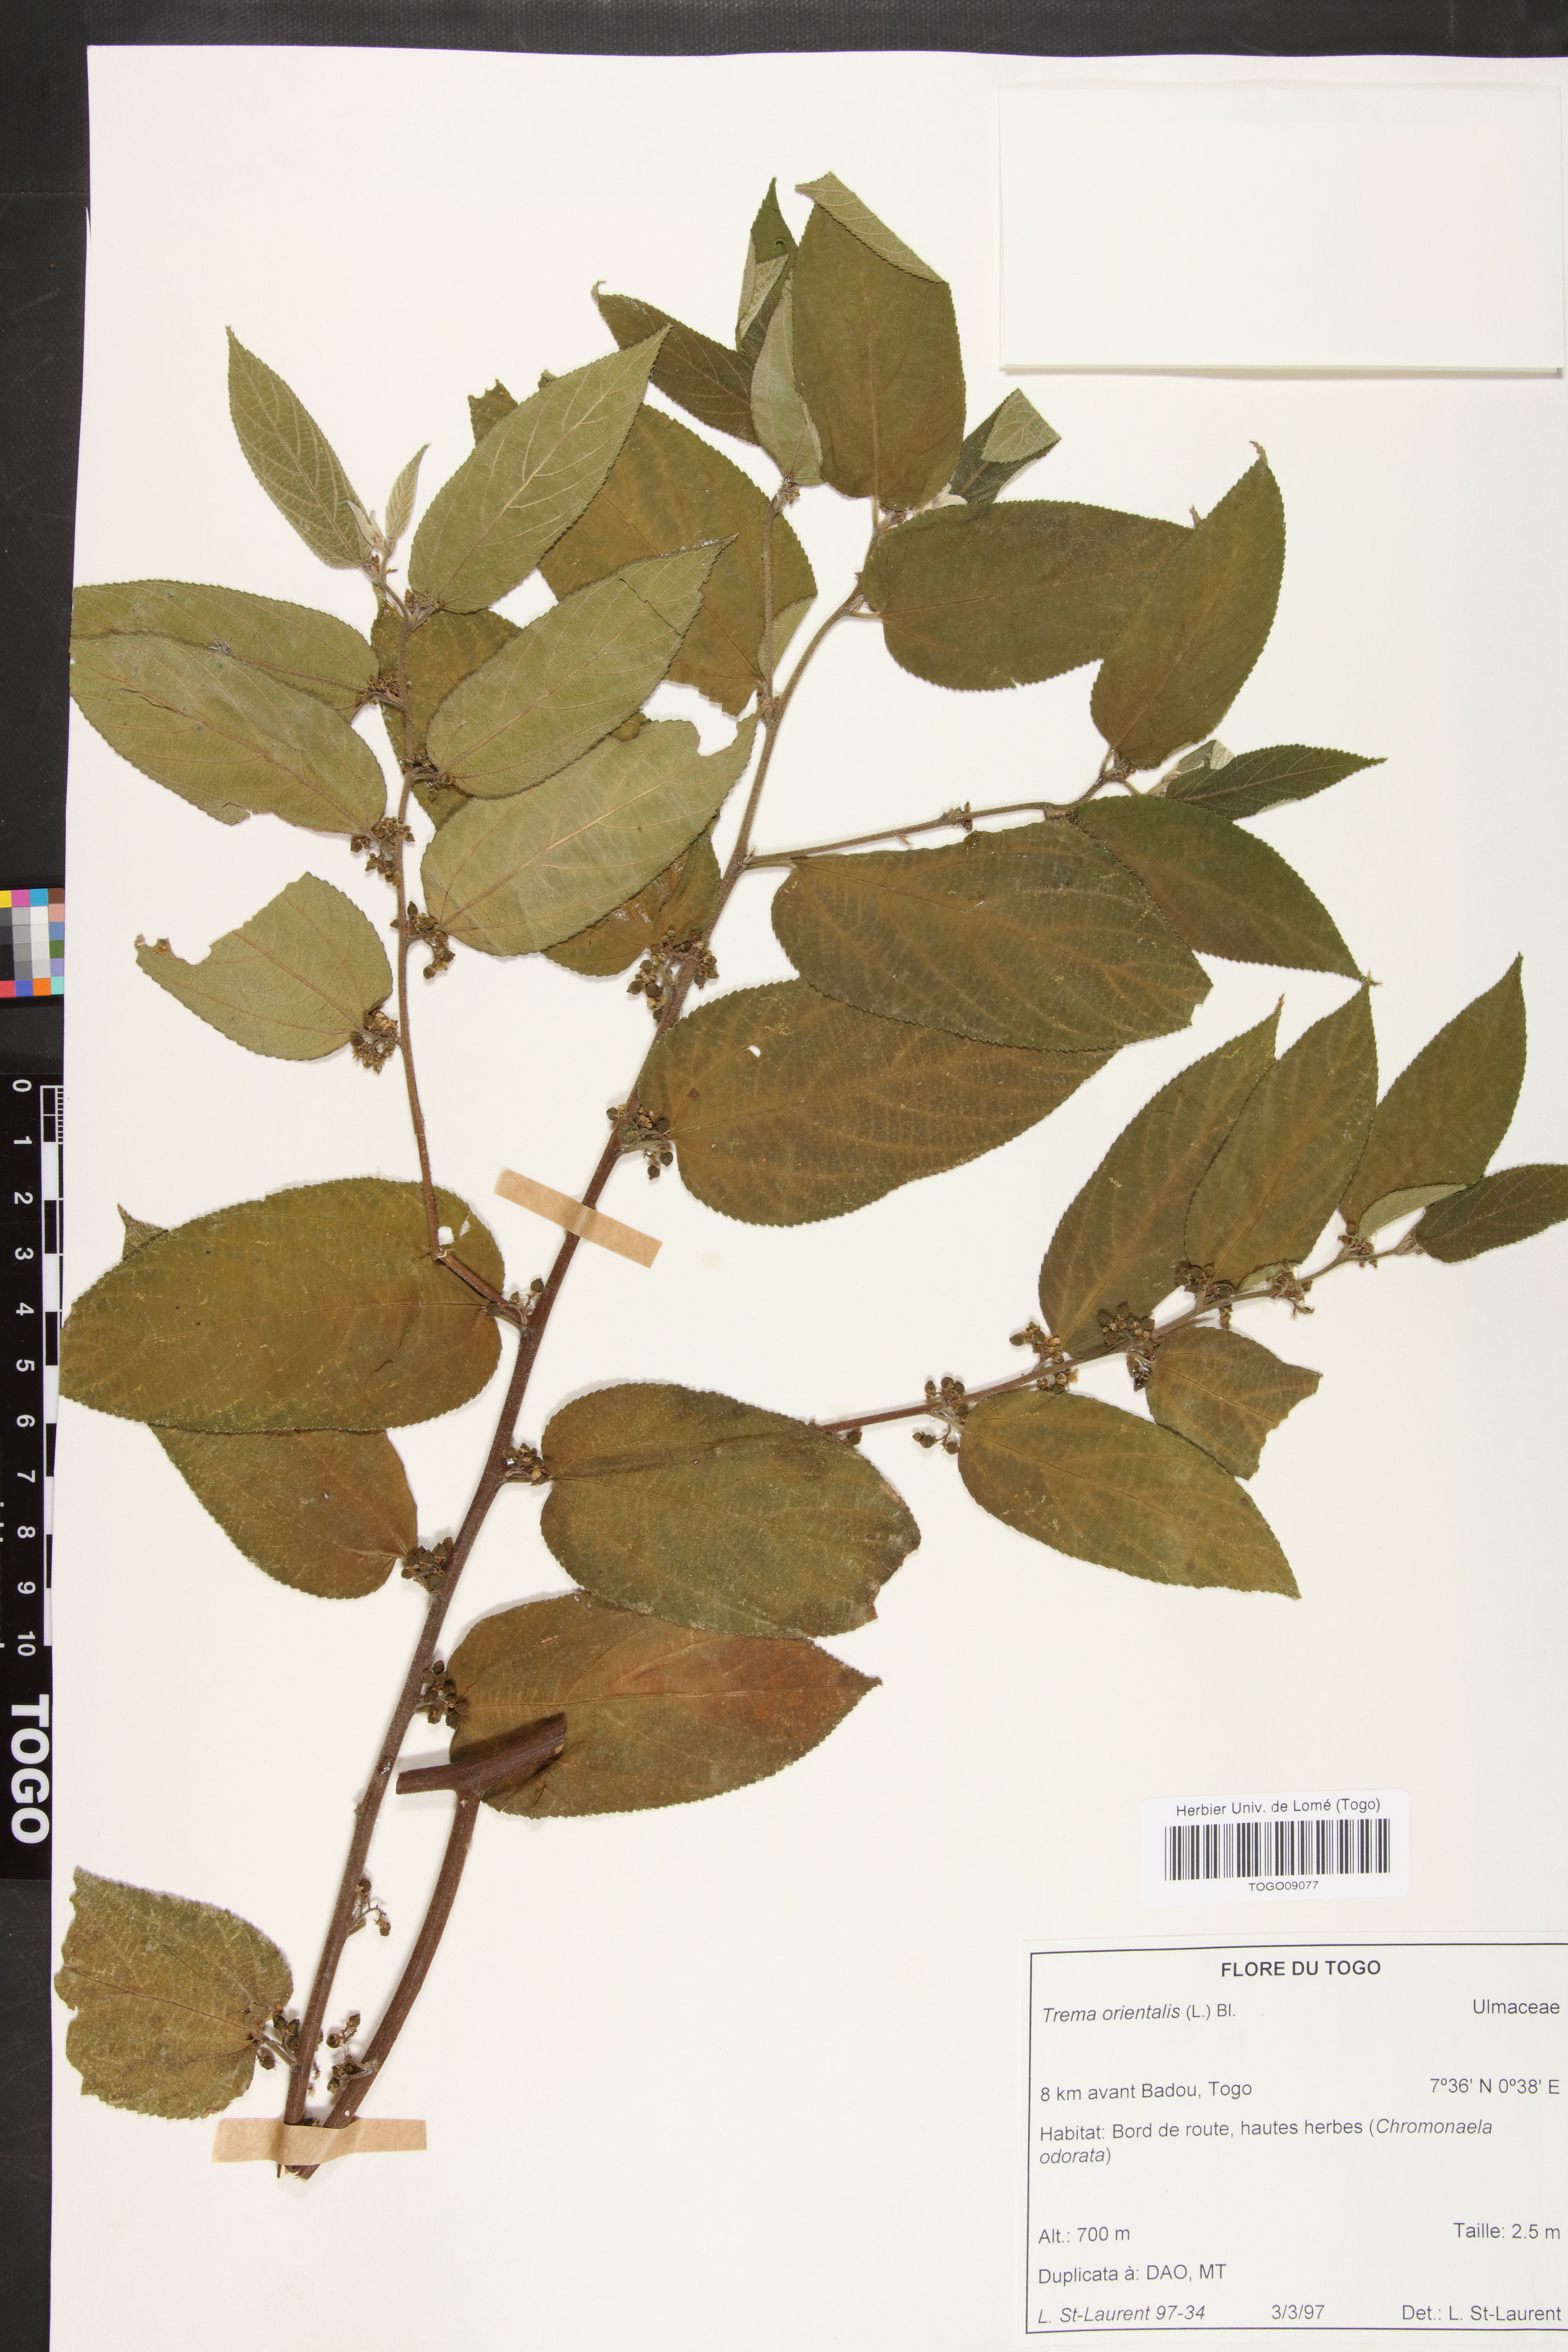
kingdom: Plantae
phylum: Tracheophyta
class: Magnoliopsida
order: Rosales
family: Cannabaceae
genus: Trema
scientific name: Trema orientale
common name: Indian charcoal tree
